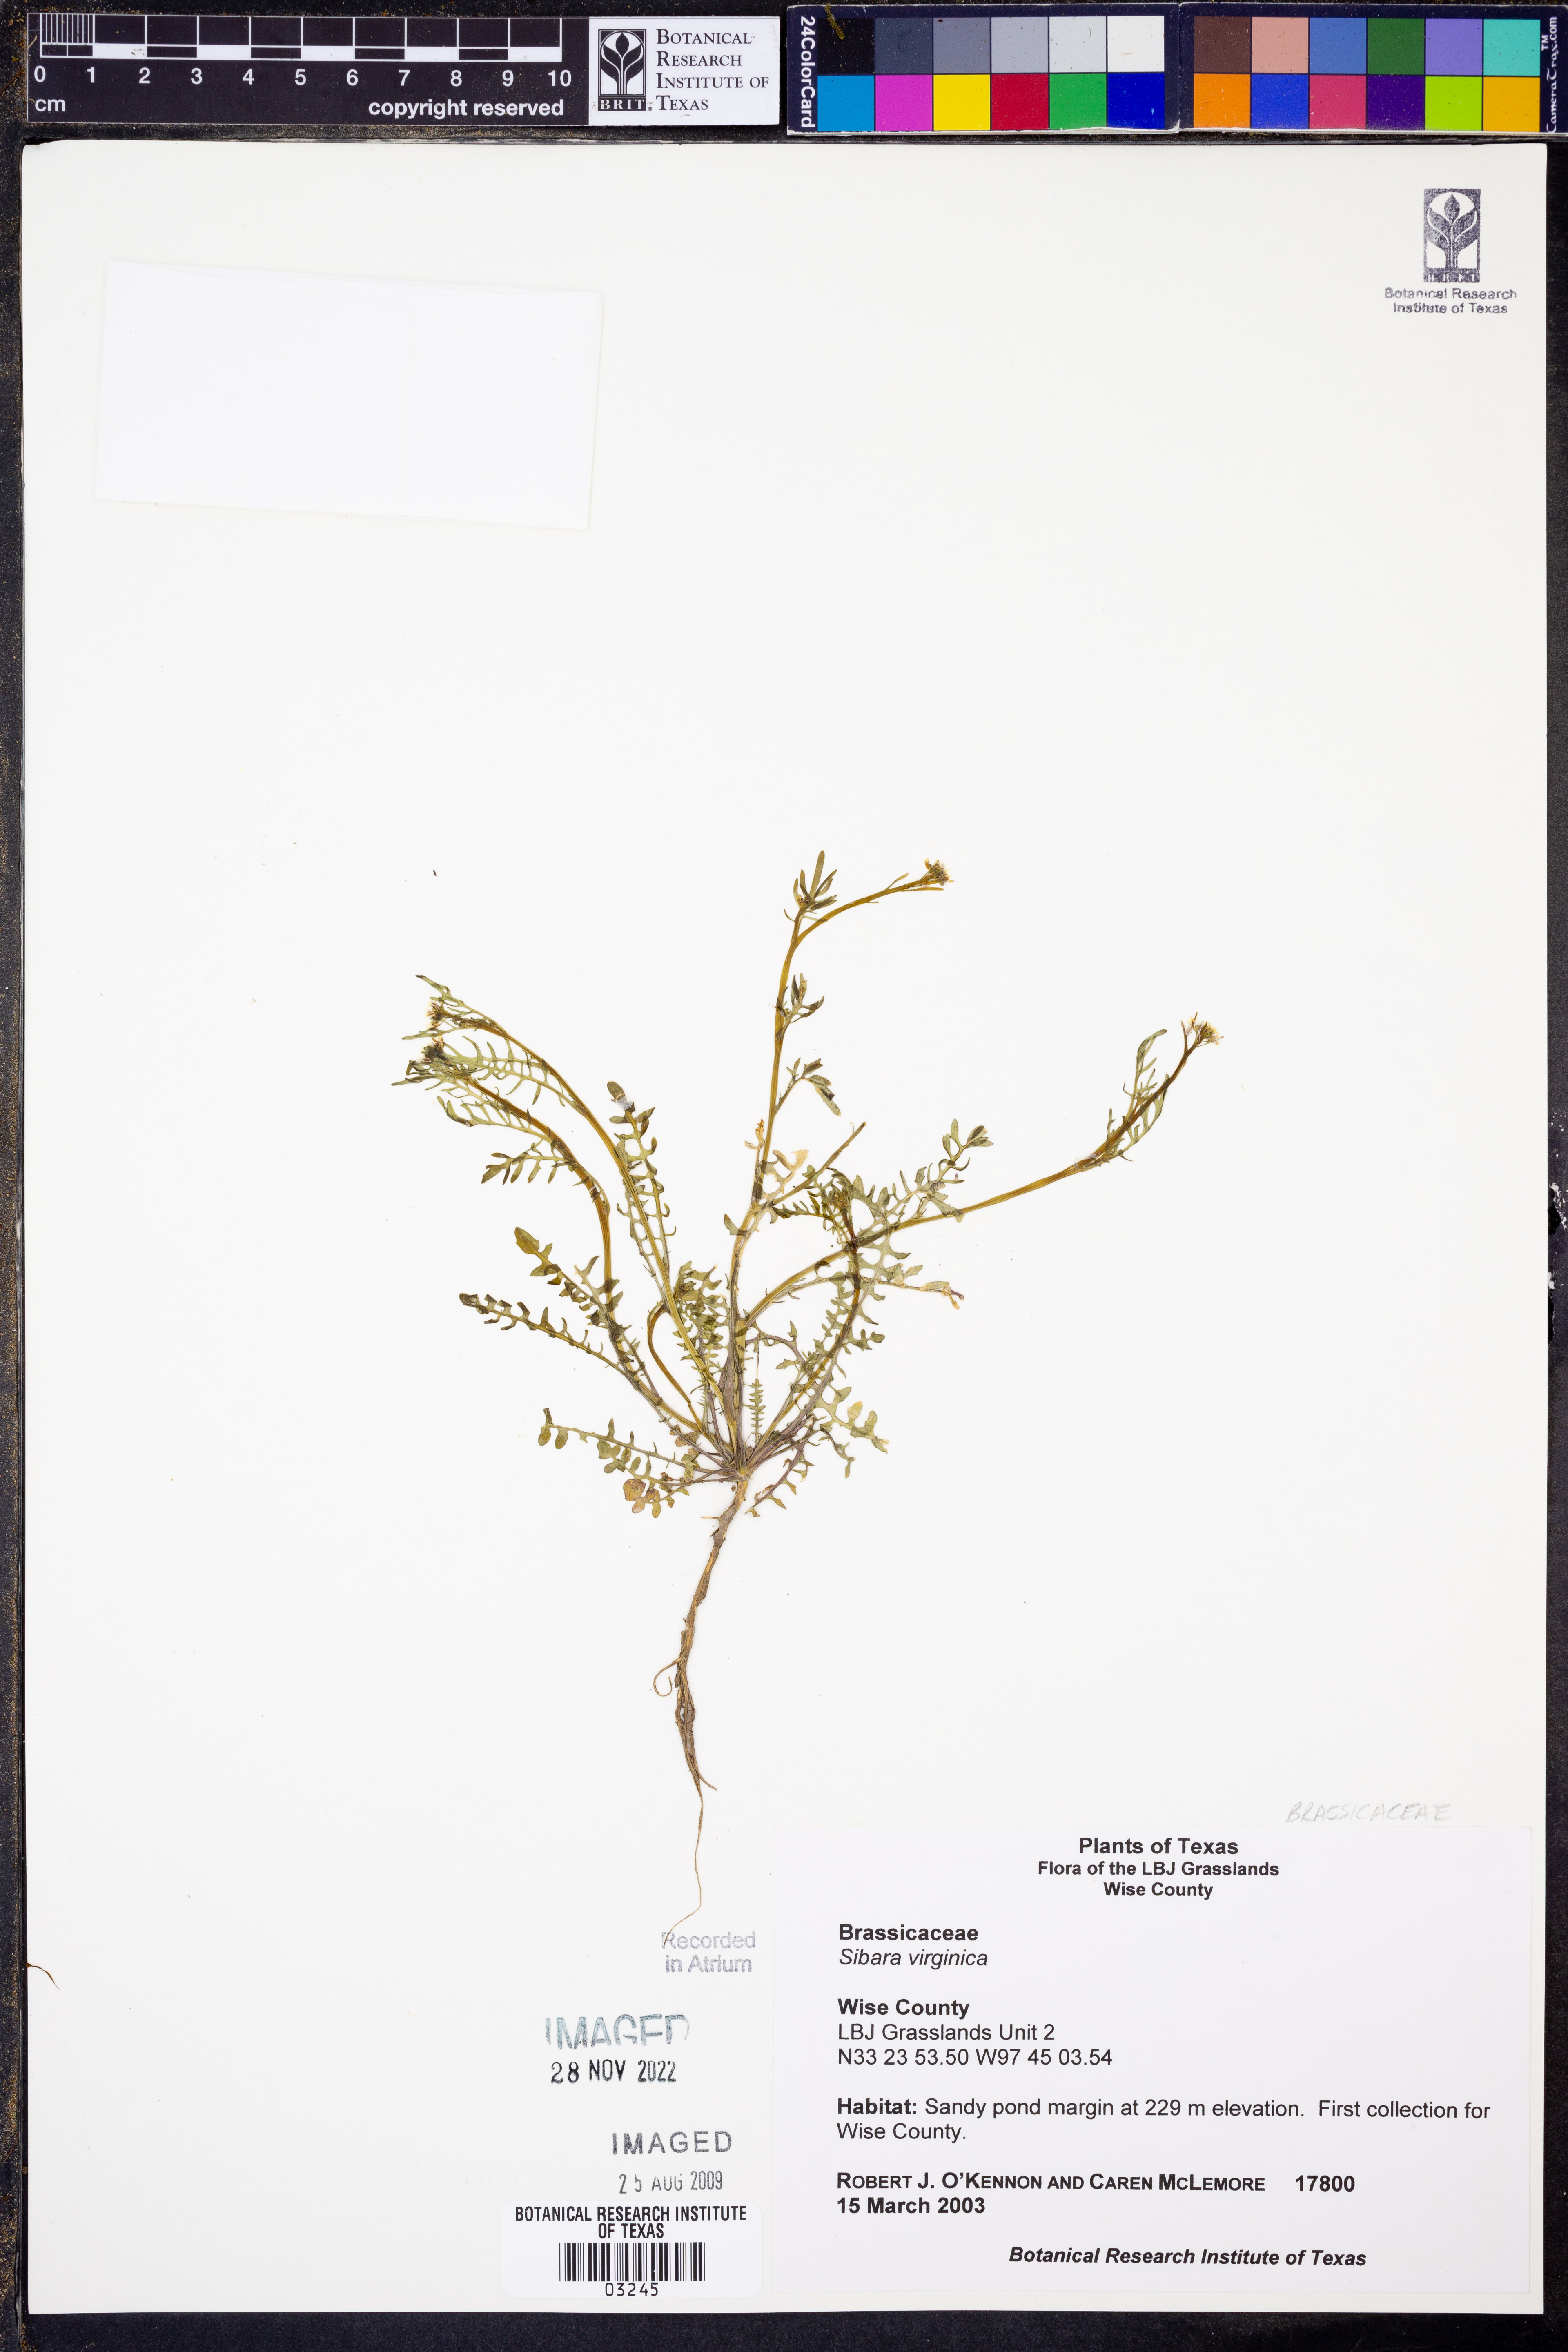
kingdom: Plantae
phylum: Tracheophyta
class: Magnoliopsida
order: Brassicales
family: Brassicaceae
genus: Planodes
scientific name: Planodes virginicum
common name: Virginia cress
